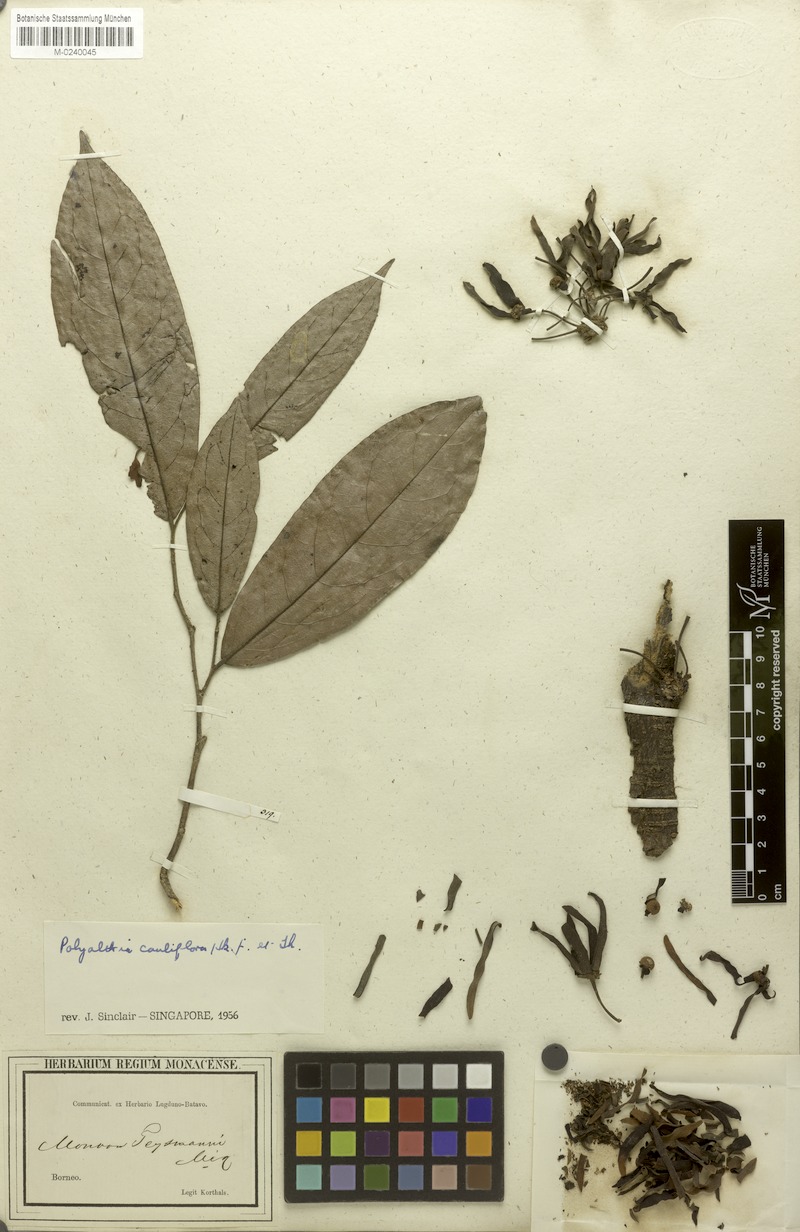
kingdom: Plantae
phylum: Tracheophyta
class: Magnoliopsida
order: Magnoliales
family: Annonaceae
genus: Polyalthia
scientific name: Polyalthia cauliflora
